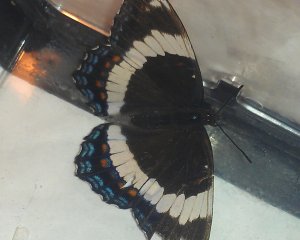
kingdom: Animalia
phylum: Arthropoda
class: Insecta
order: Lepidoptera
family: Nymphalidae
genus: Limenitis
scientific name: Limenitis arthemis
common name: Red-spotted Admiral
